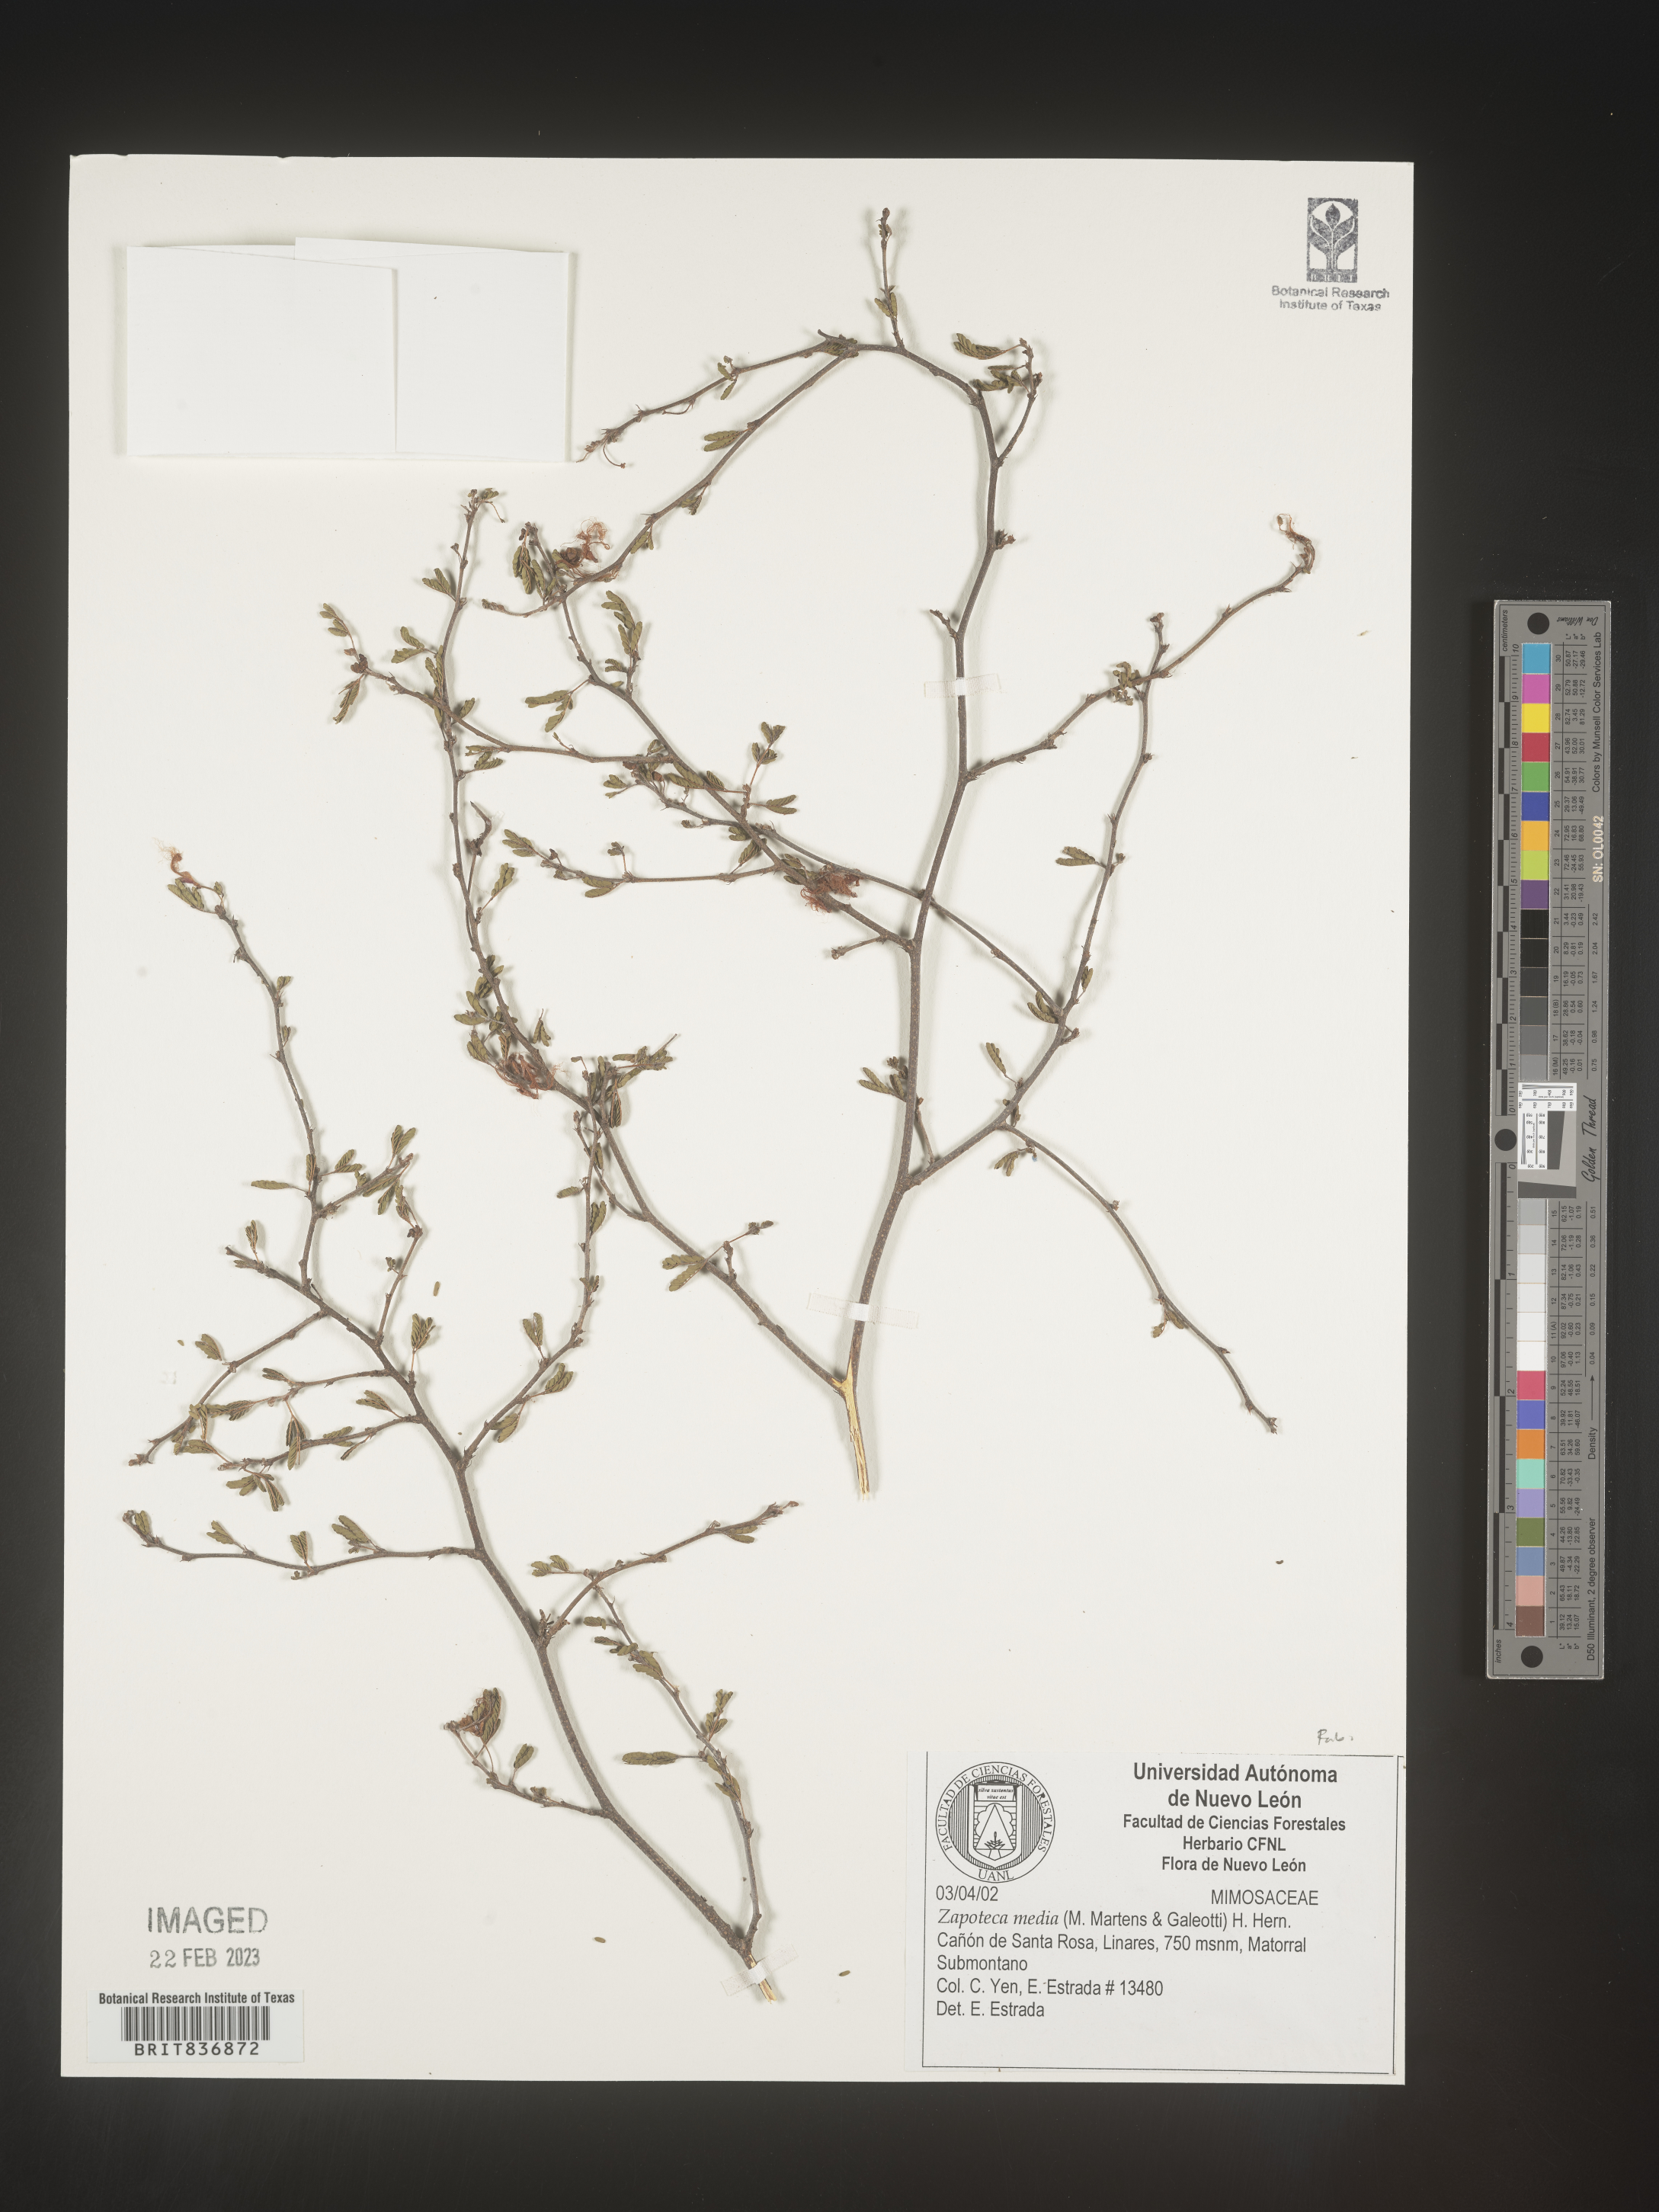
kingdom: Plantae
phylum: Tracheophyta
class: Magnoliopsida
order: Fabales
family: Fabaceae
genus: Zapoteca
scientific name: Zapoteca
